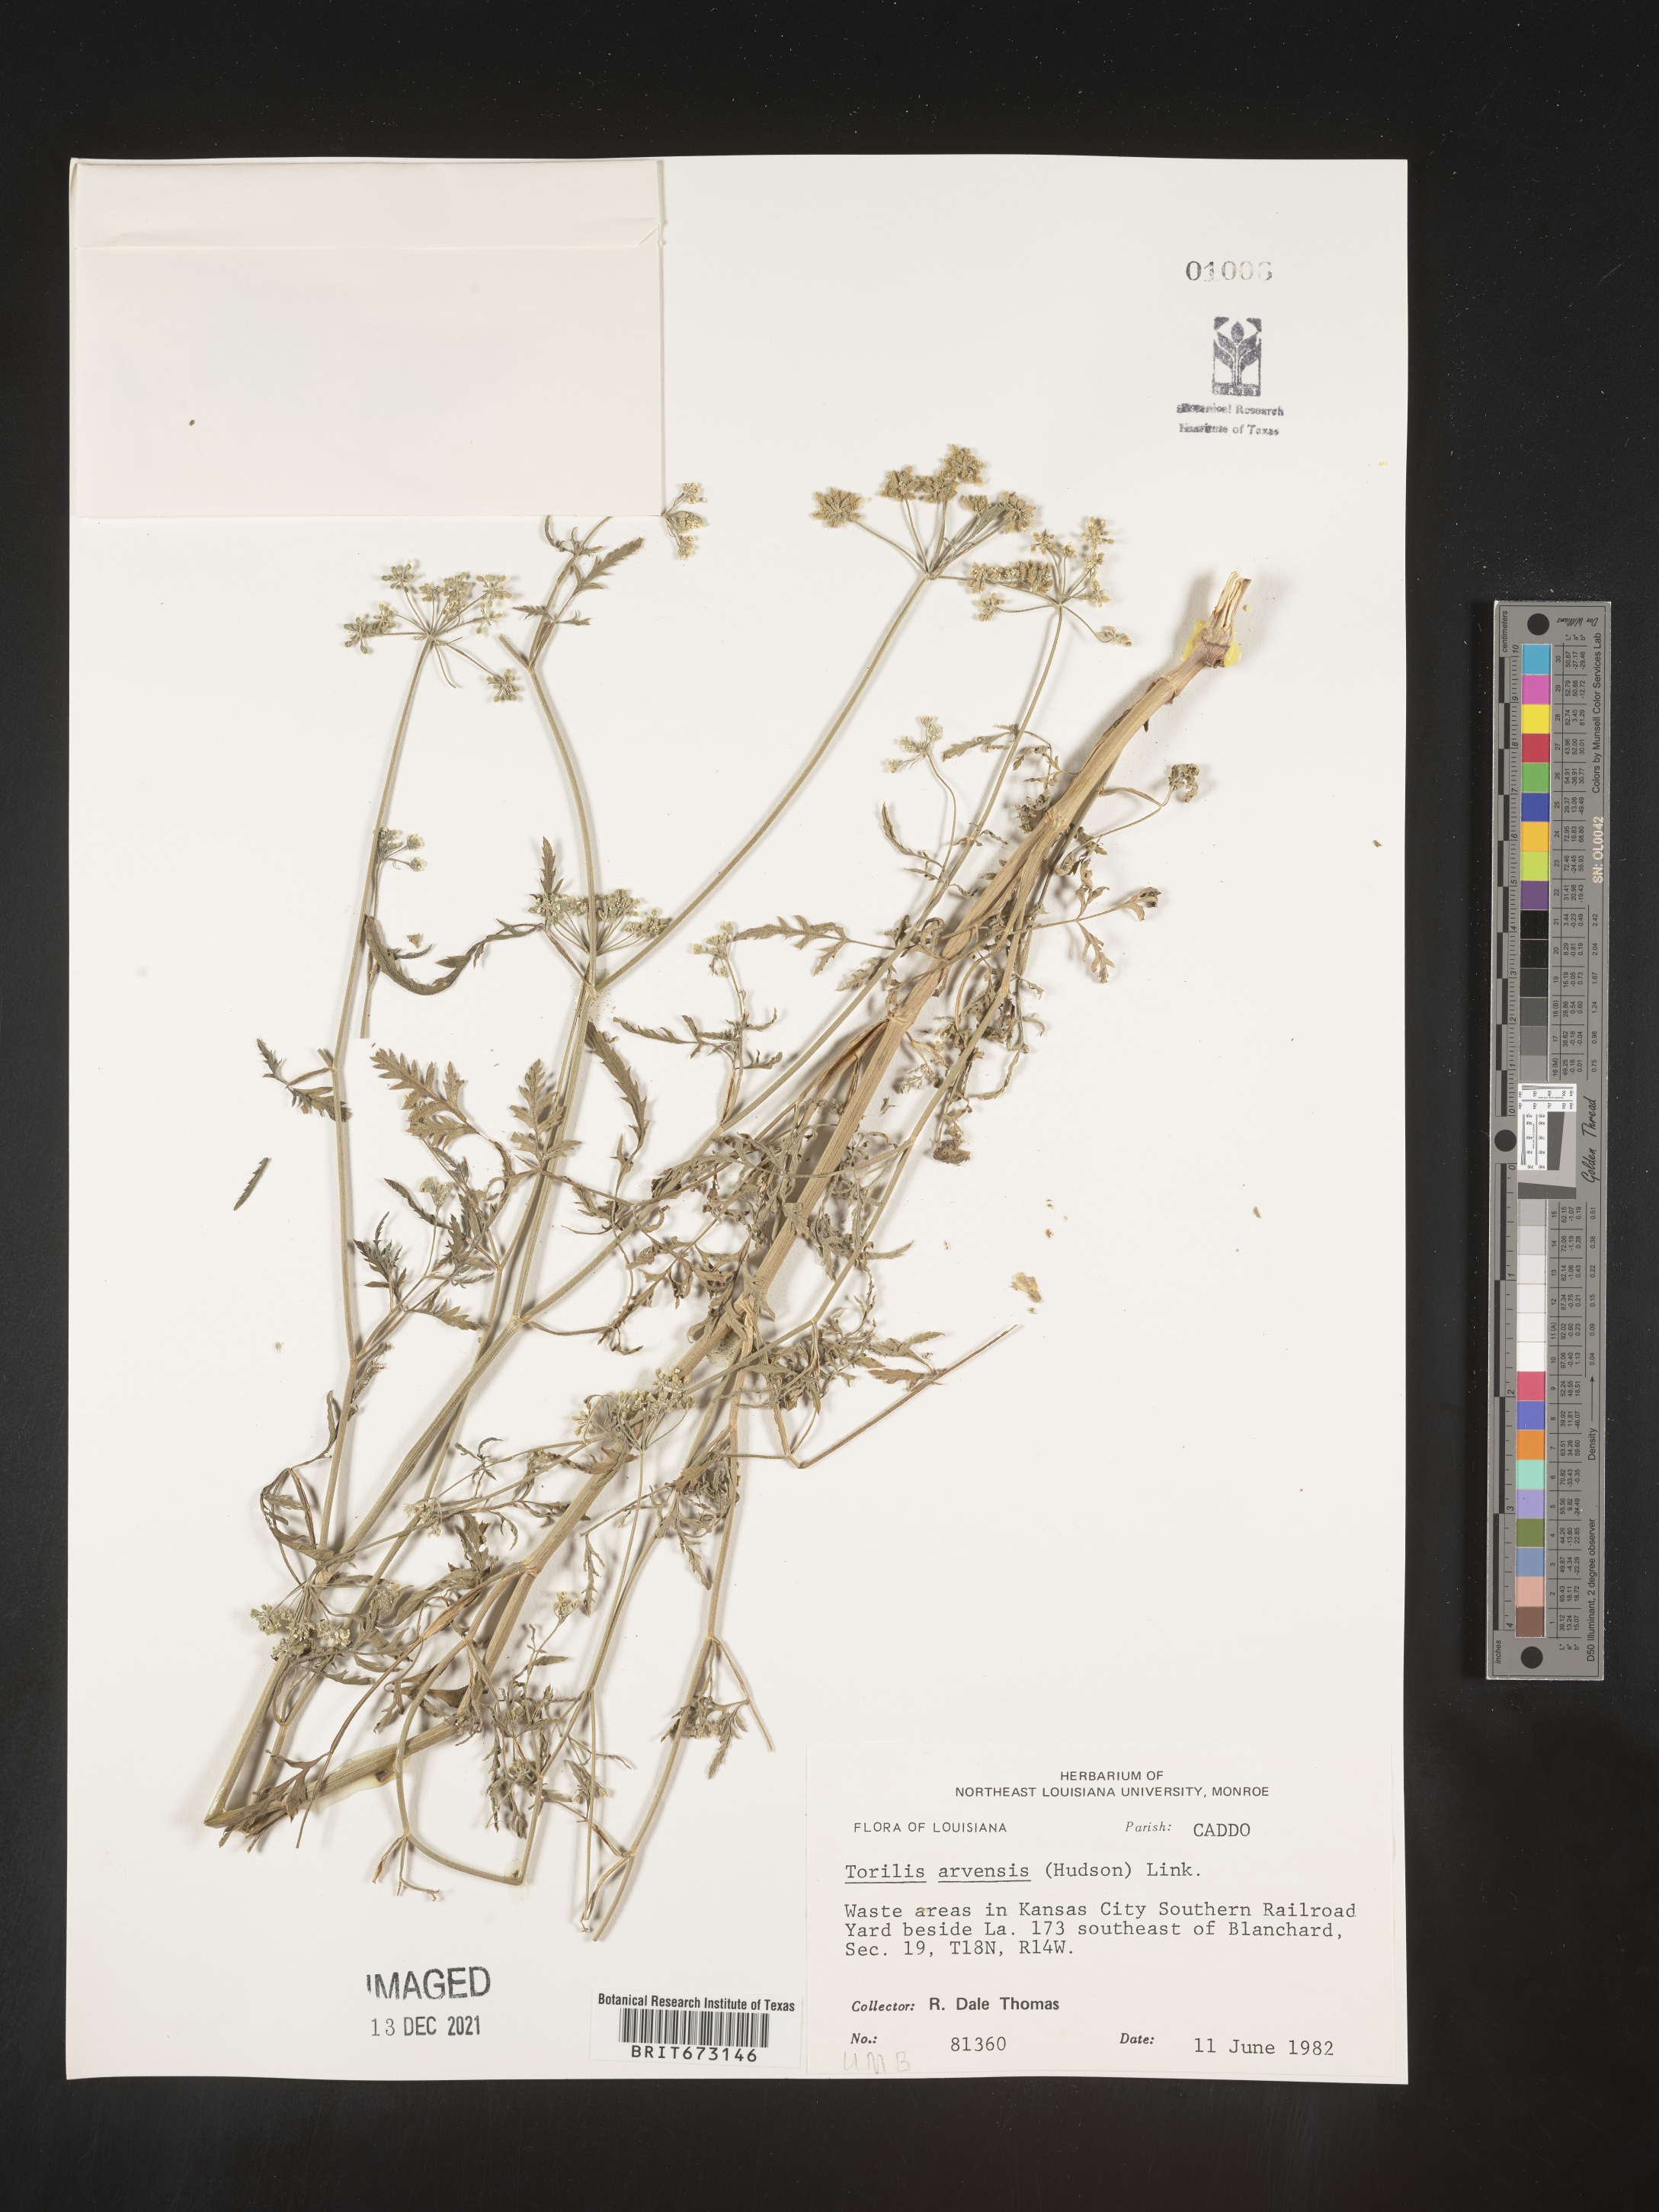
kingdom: Plantae
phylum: Tracheophyta
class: Magnoliopsida
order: Apiales
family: Apiaceae
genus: Torilis
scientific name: Torilis arvensis
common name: Spreading hedge-parsley
